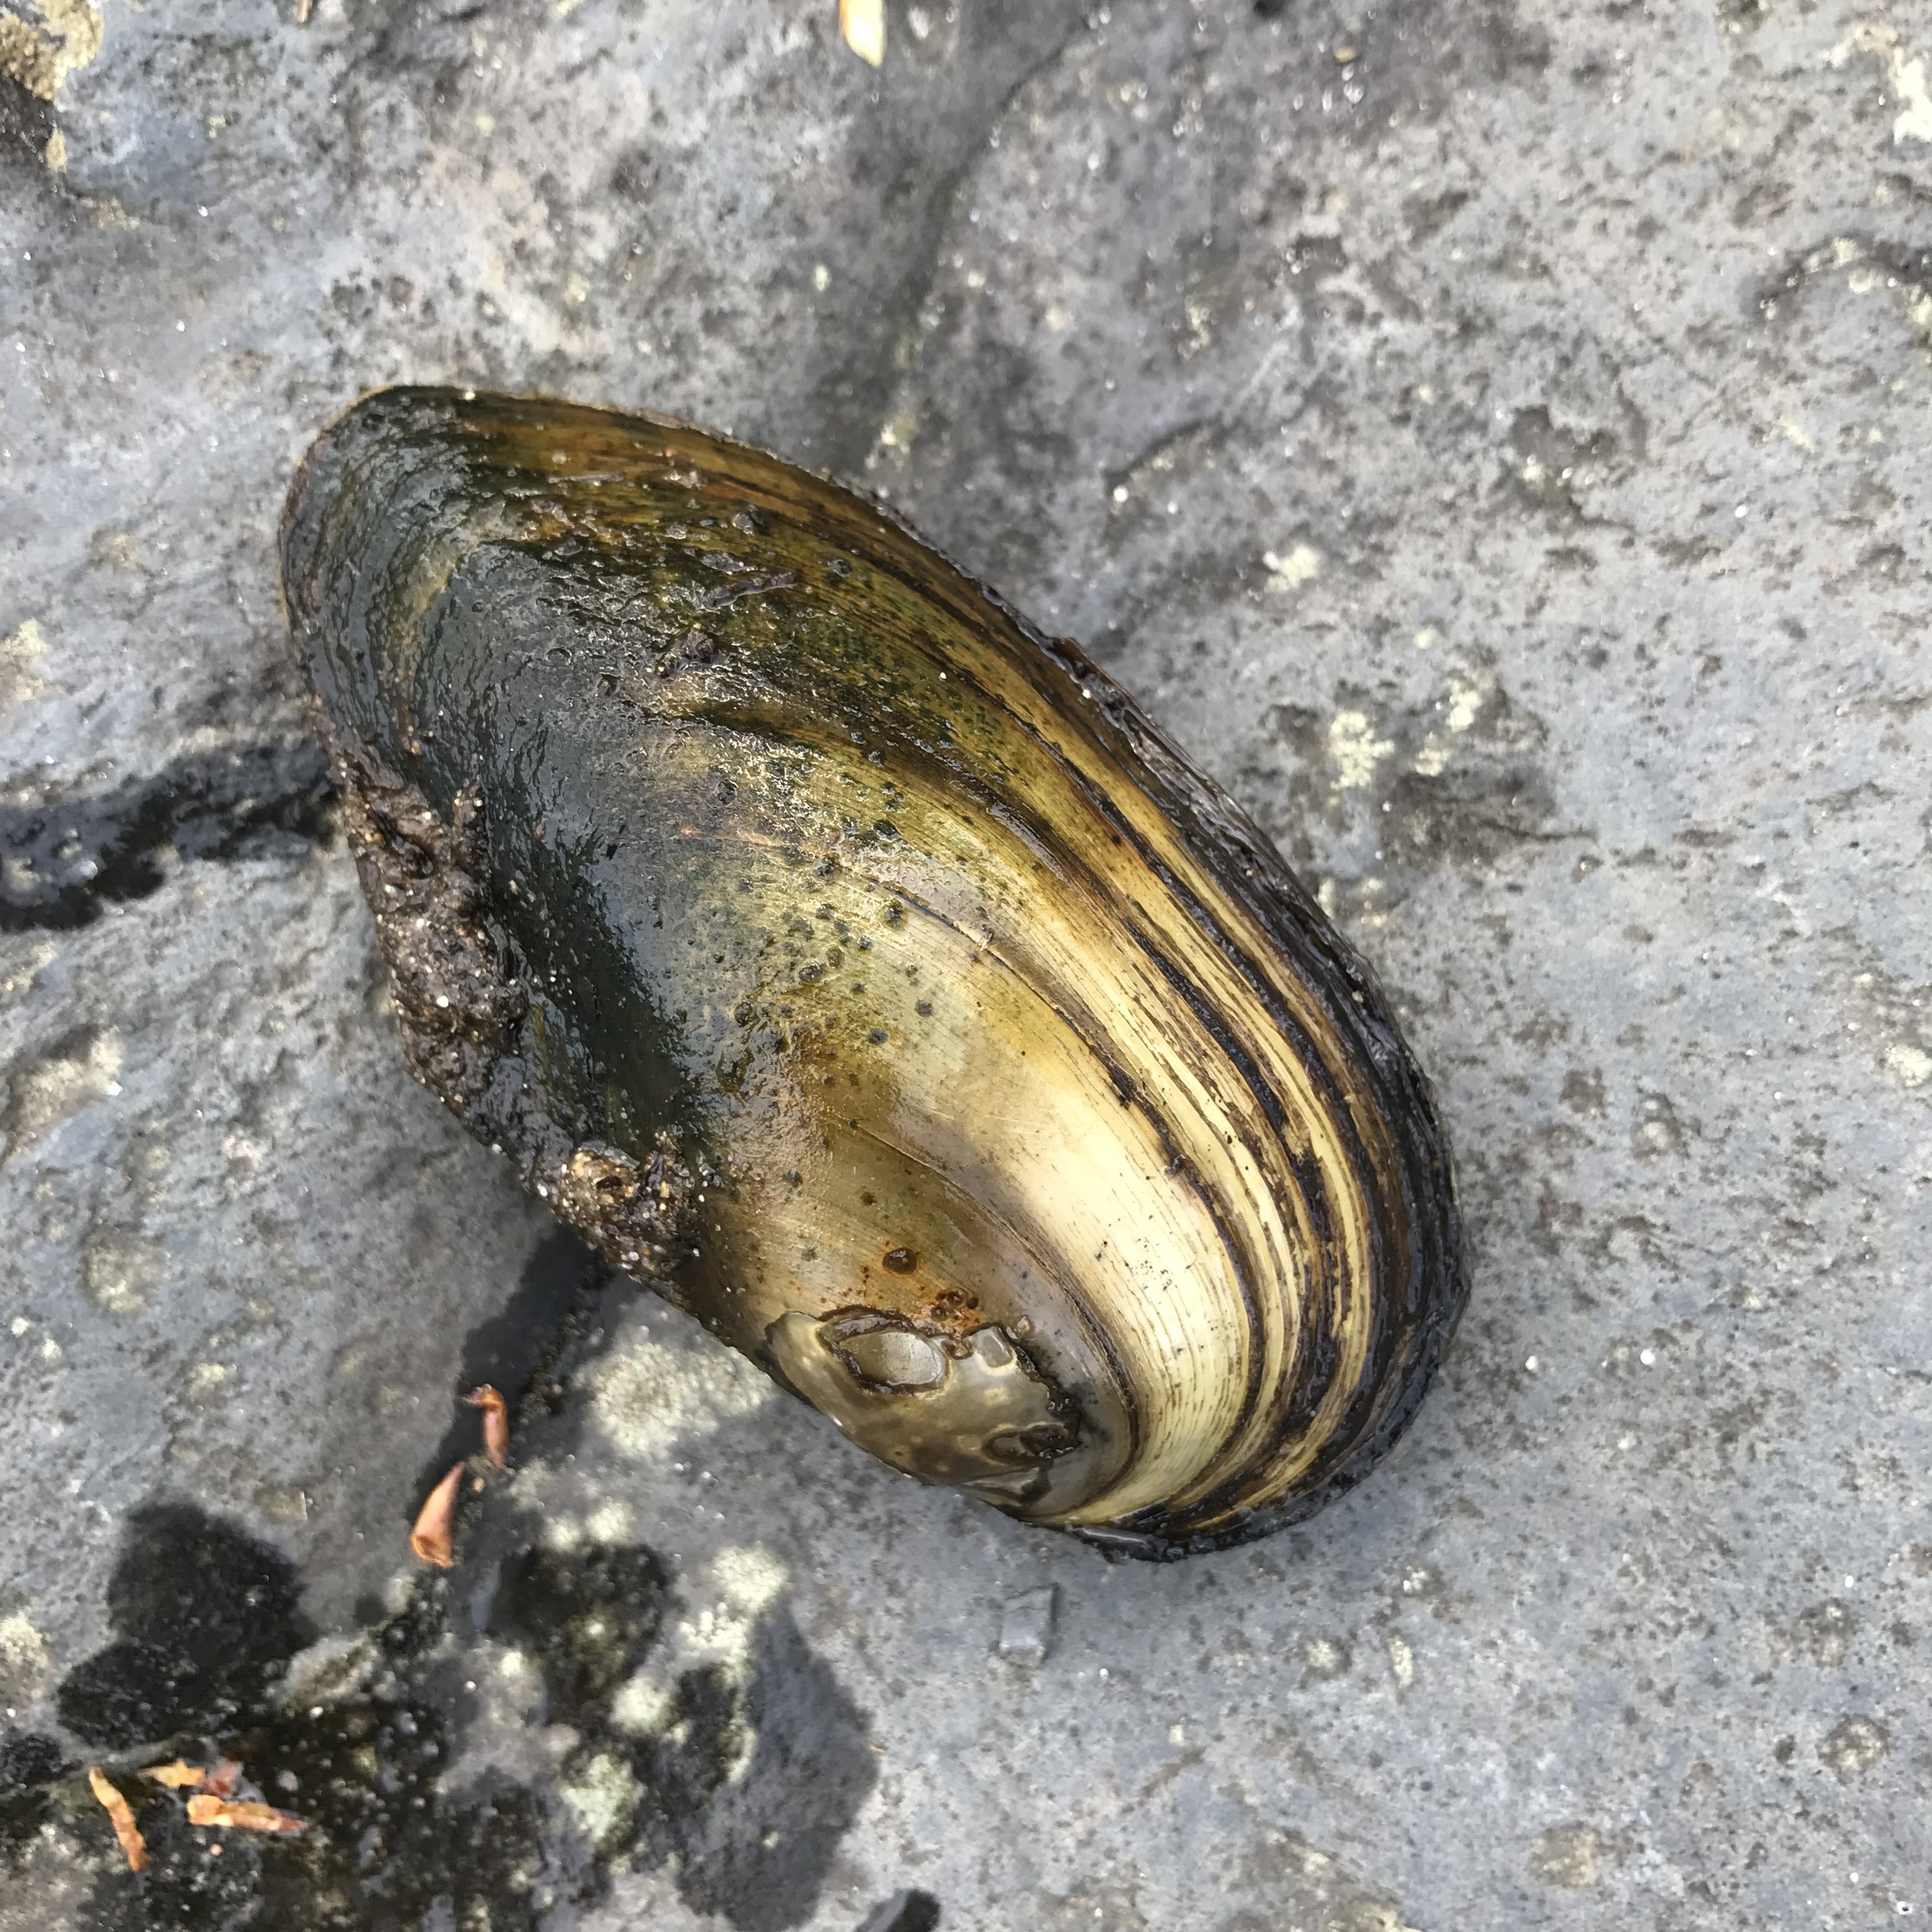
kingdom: Animalia
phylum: Mollusca
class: Bivalvia
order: Unionida
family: Unionidae
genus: Anodonta
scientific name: Anodonta anatina
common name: Duck mussel
